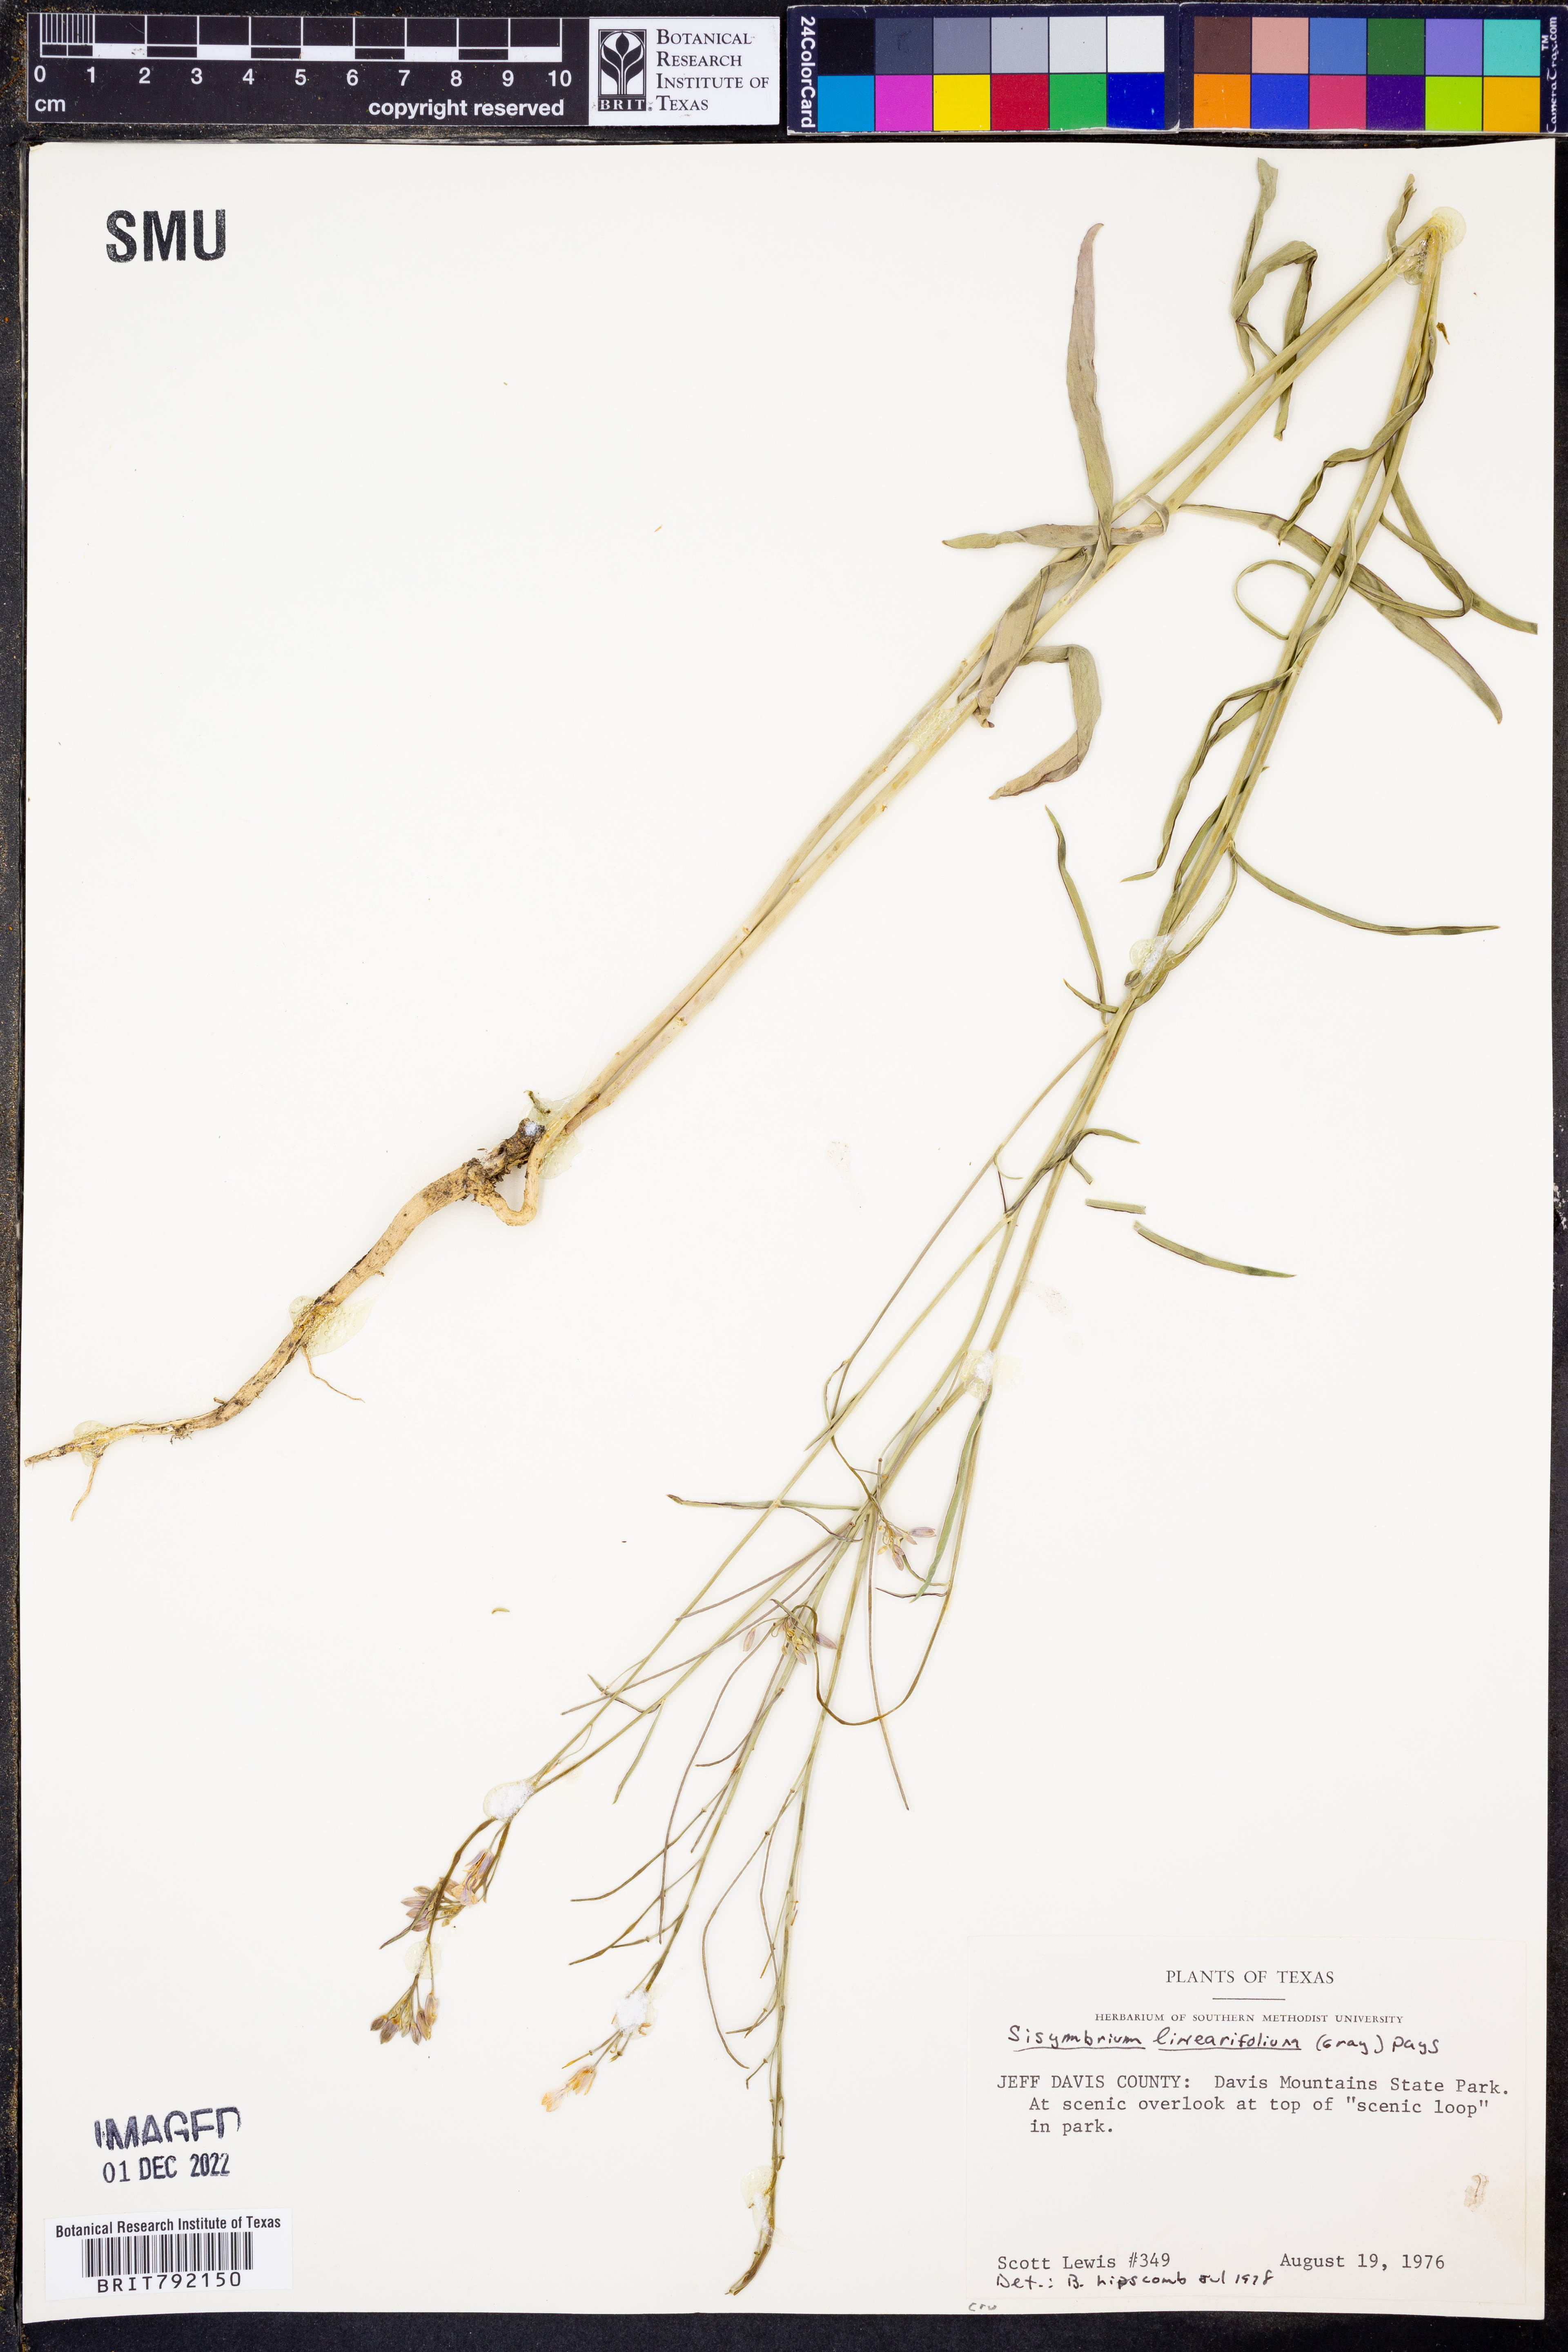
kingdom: Plantae
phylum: Tracheophyta
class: Magnoliopsida
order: Brassicales
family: Brassicaceae
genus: Hesperidanthus
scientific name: Hesperidanthus linearifolius
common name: Slim-leaf plains mustard
